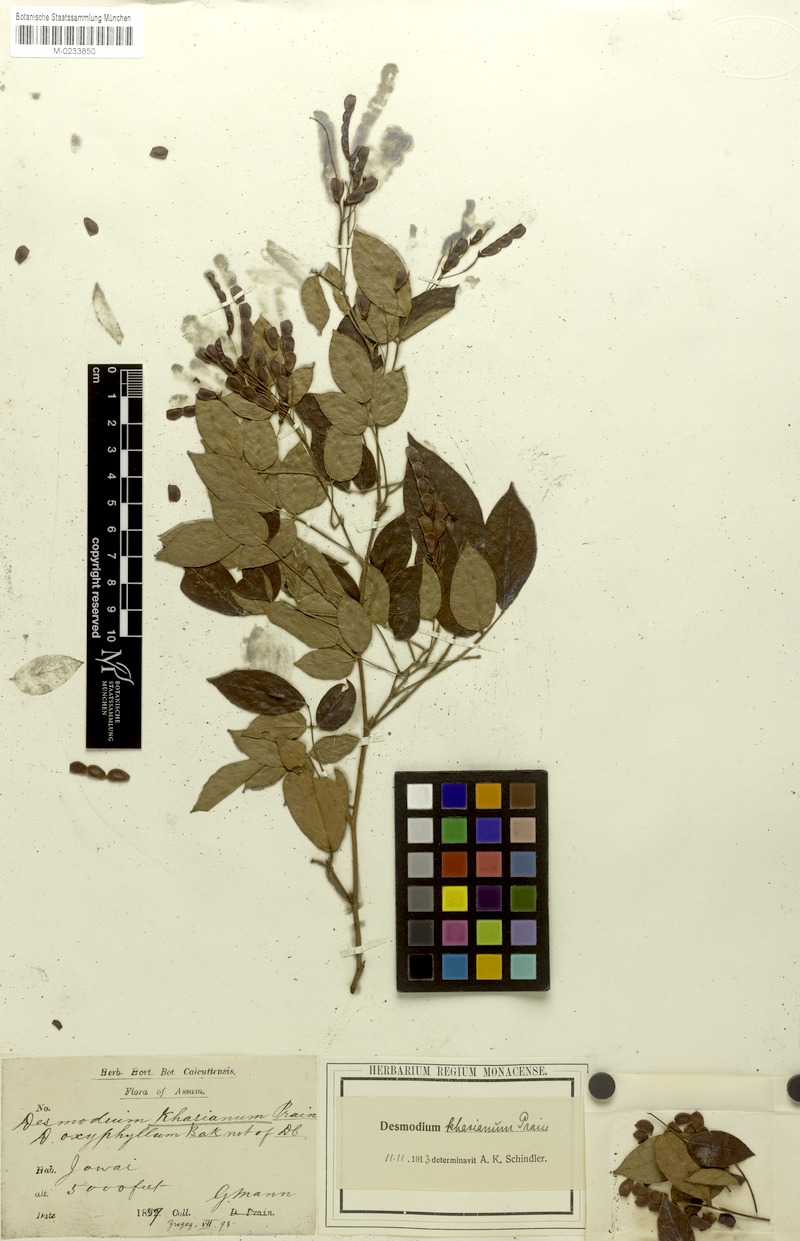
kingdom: Plantae
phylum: Tracheophyta
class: Magnoliopsida
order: Fabales
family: Fabaceae
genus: Ototropis
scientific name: Ototropis khasiana
